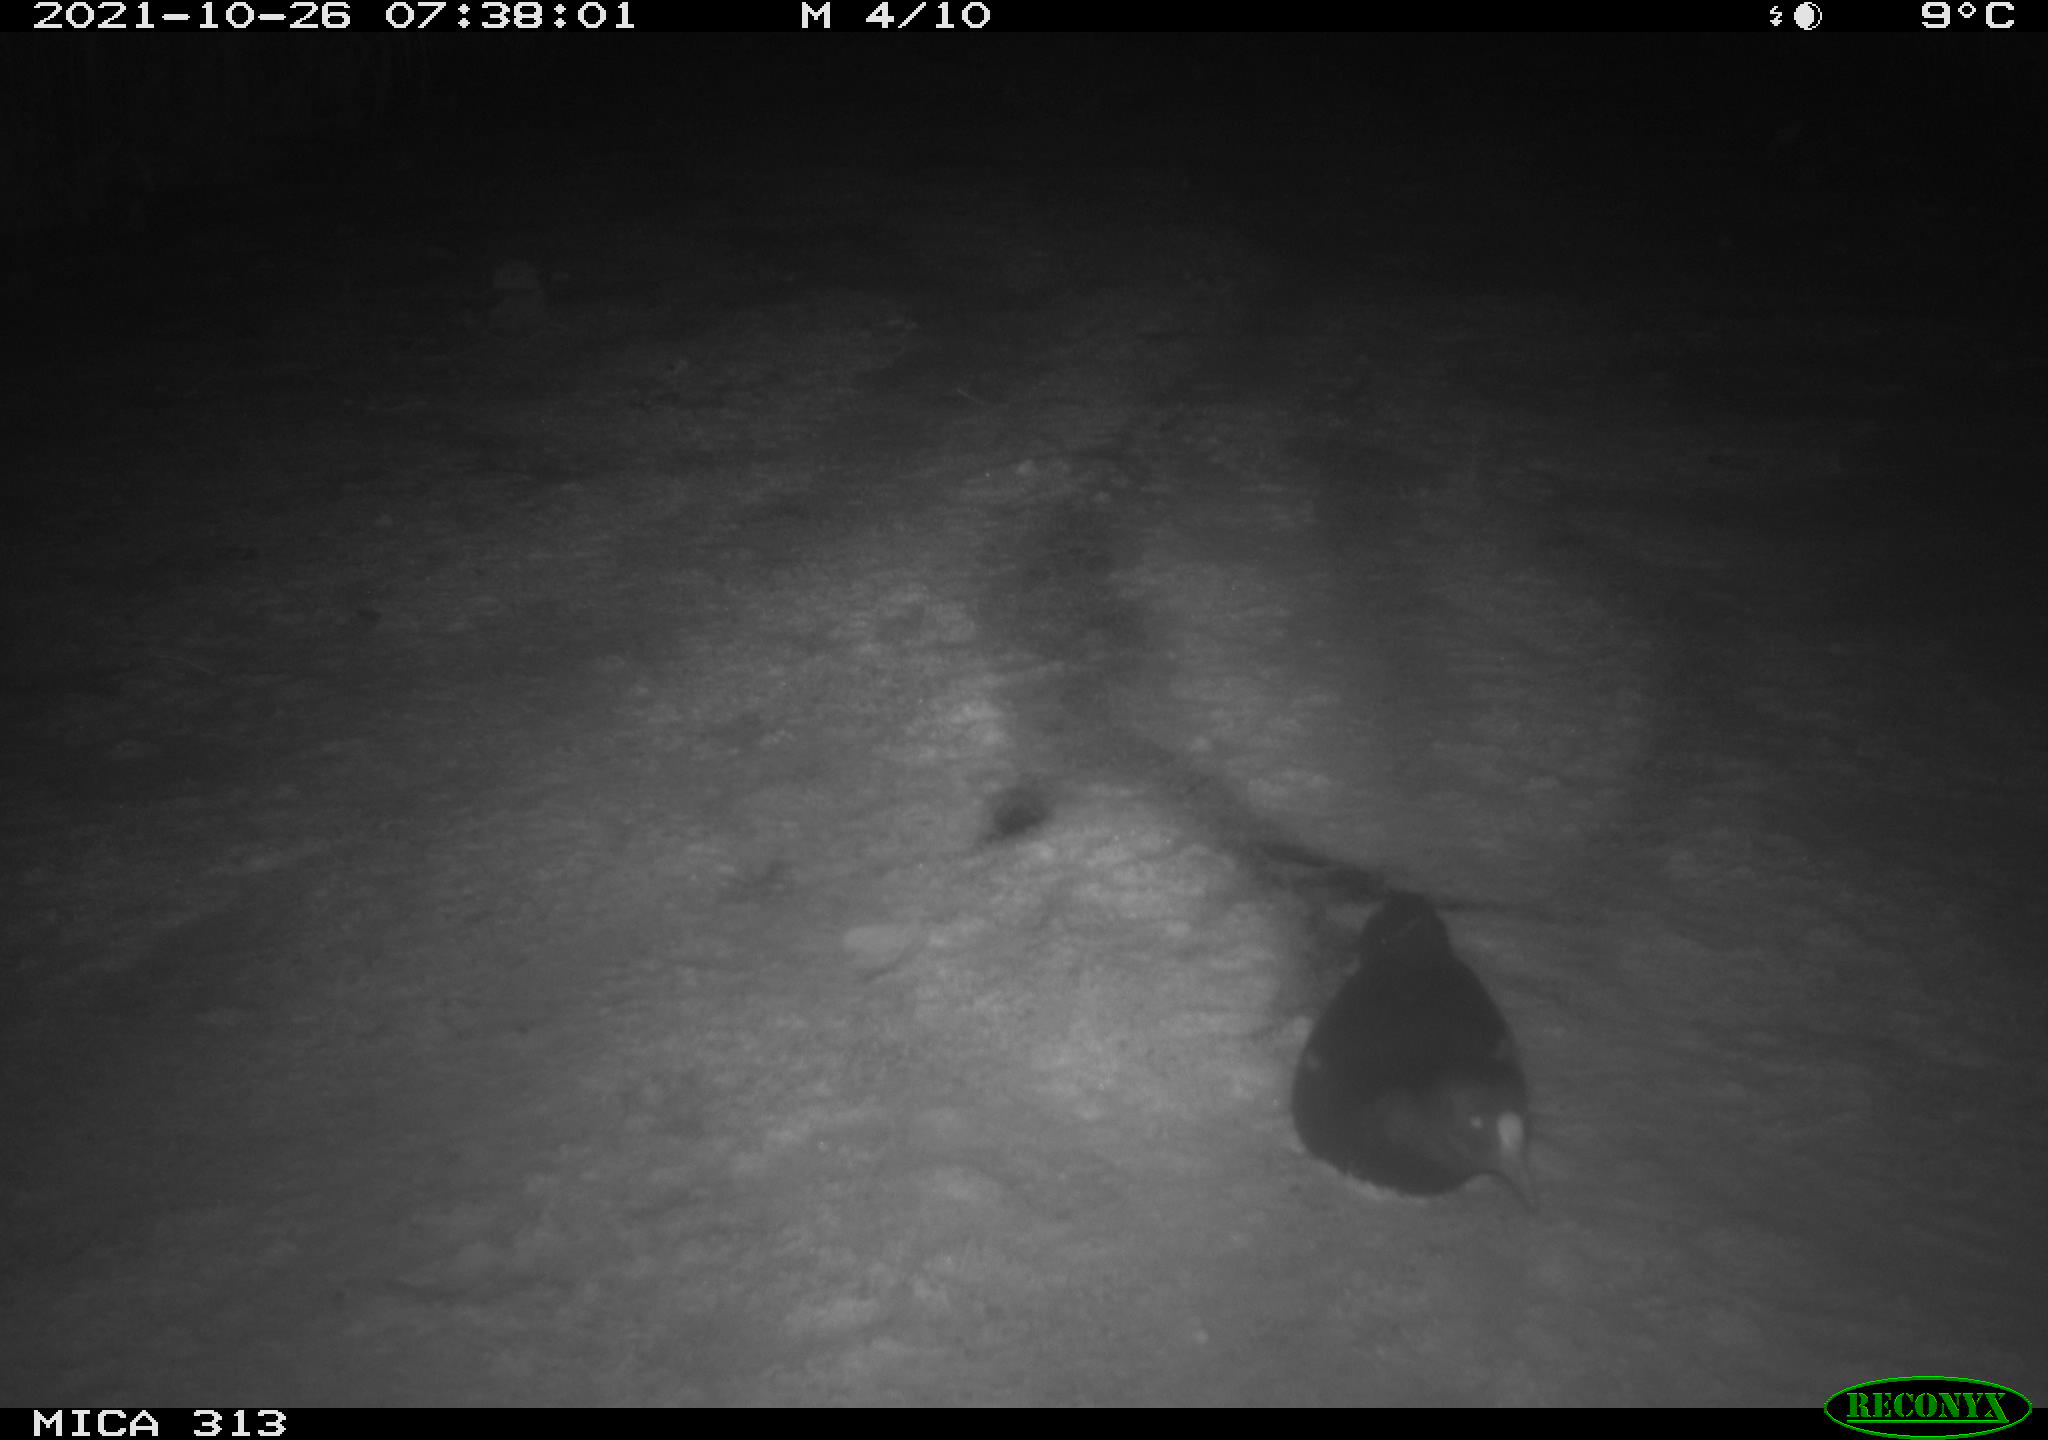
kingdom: Animalia
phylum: Chordata
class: Aves
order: Gruiformes
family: Rallidae
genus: Fulica
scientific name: Fulica atra
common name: Eurasian coot
